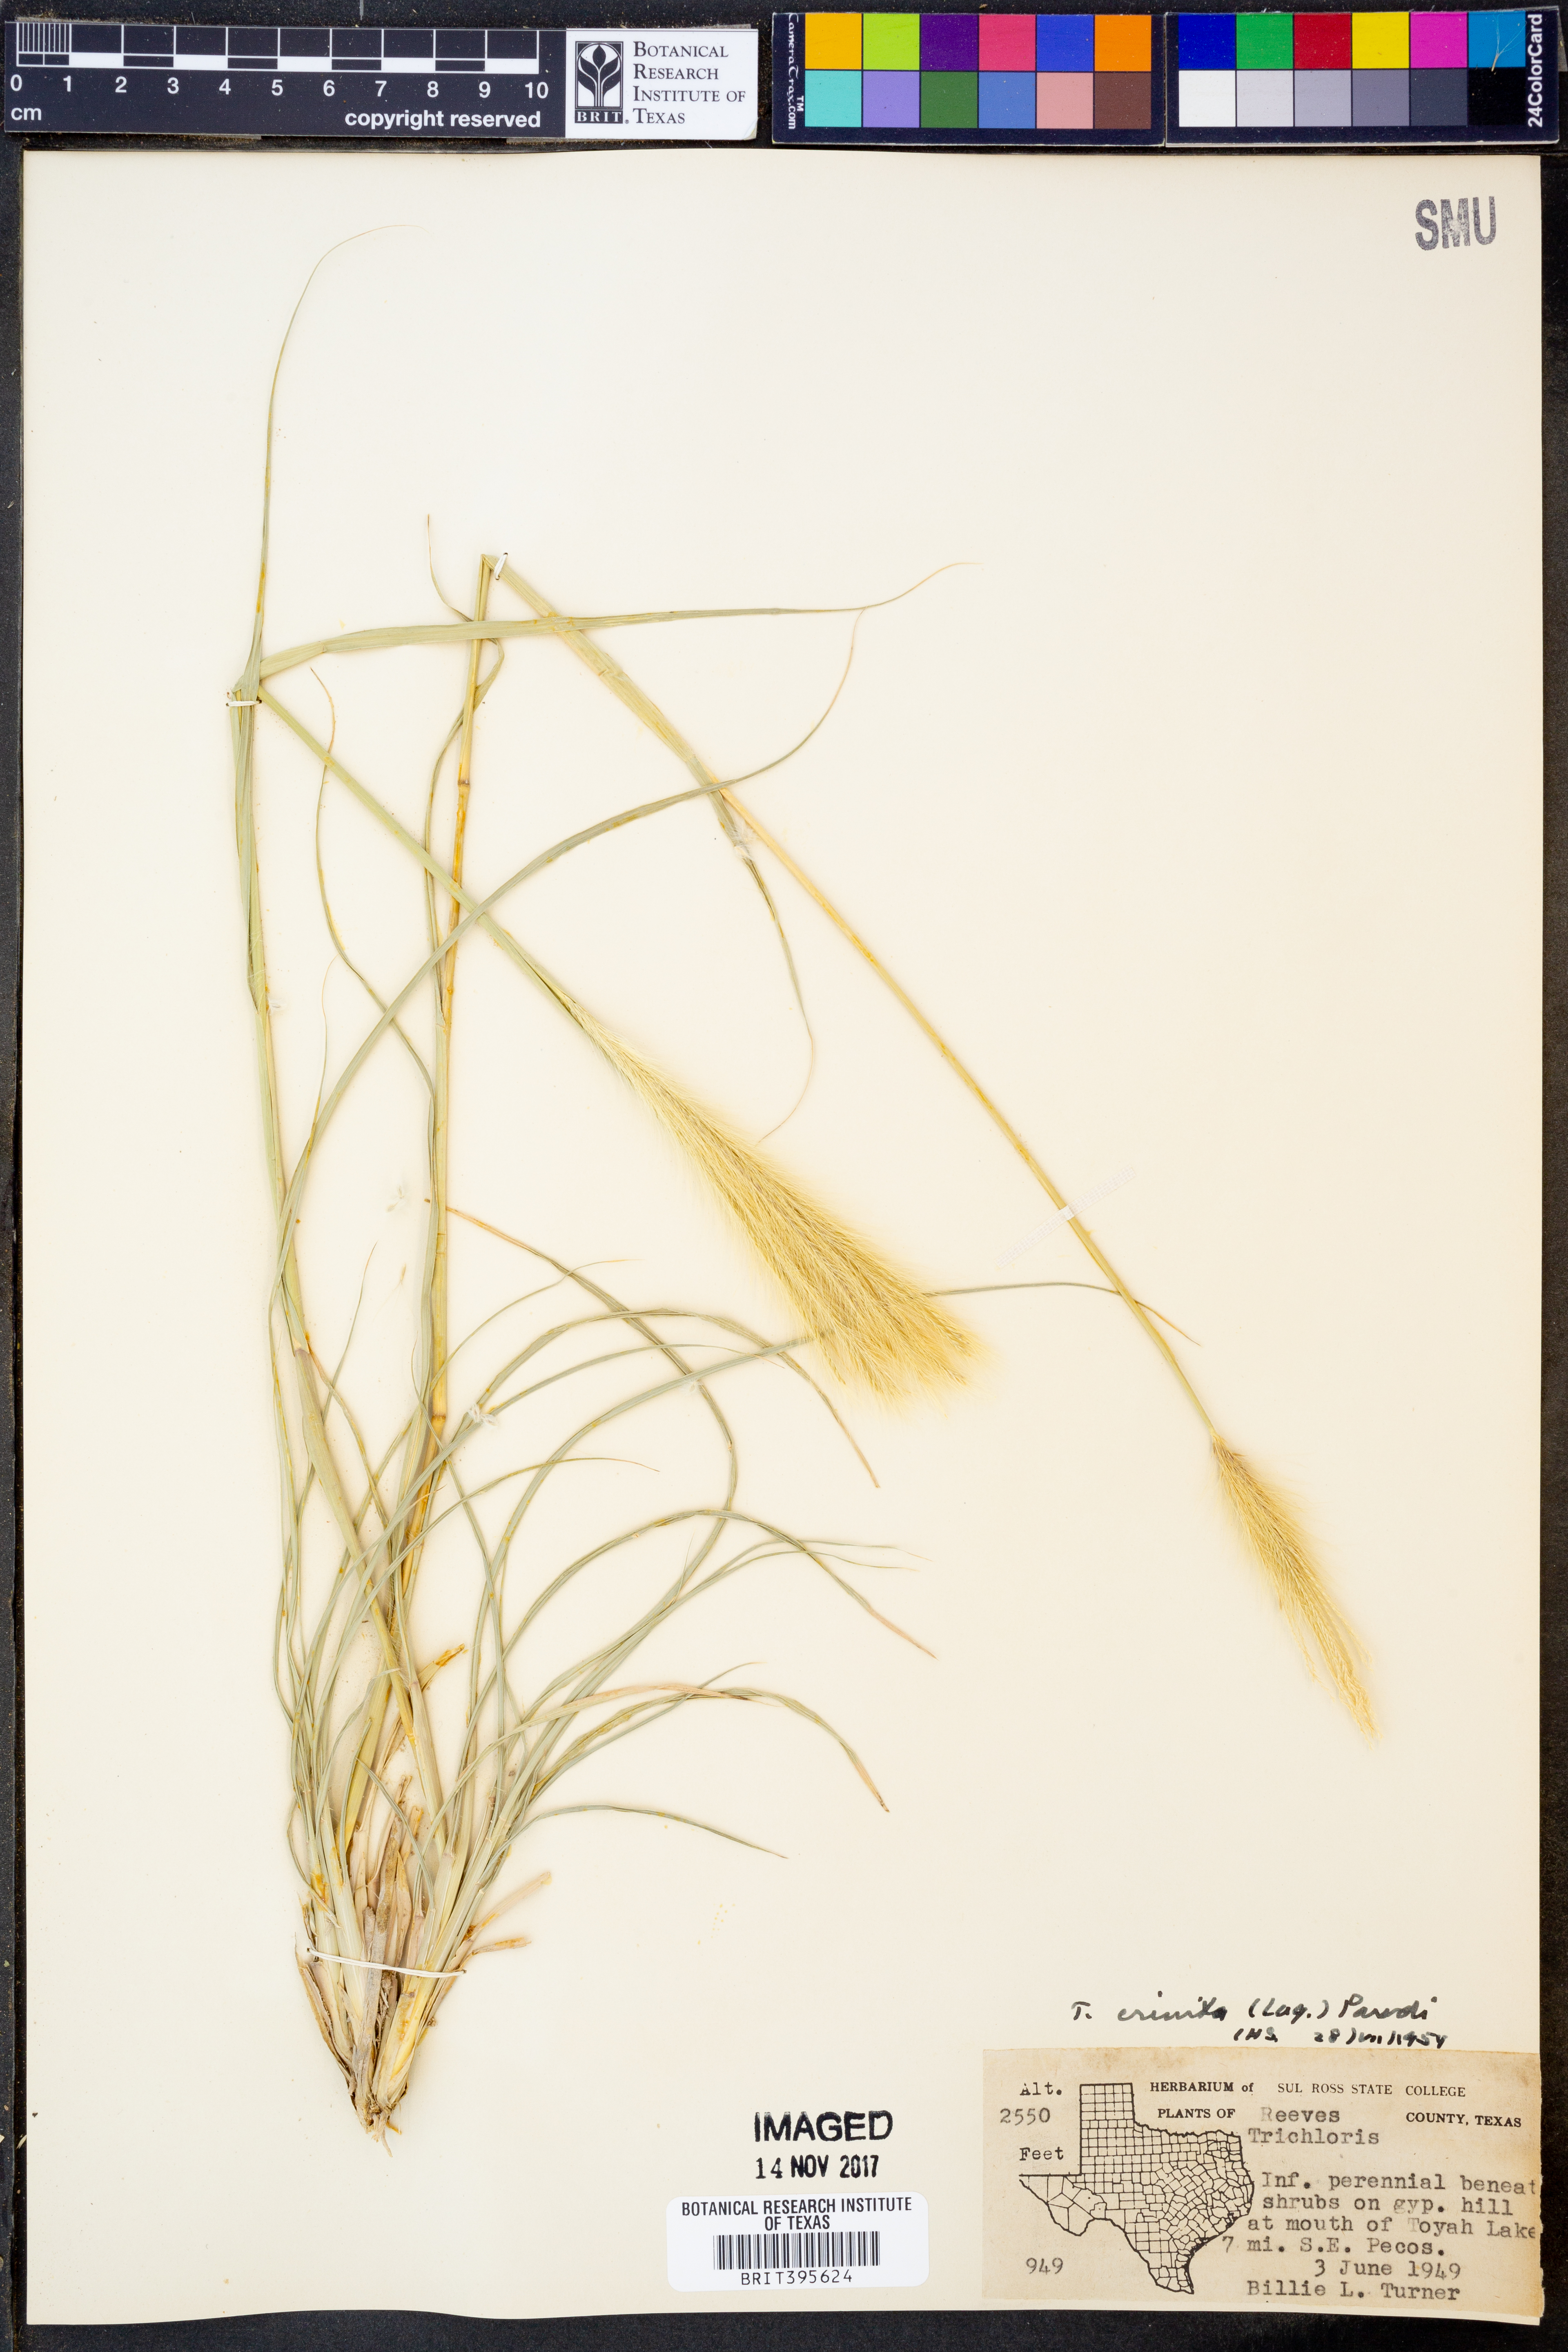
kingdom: Plantae
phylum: Tracheophyta
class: Liliopsida
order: Poales
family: Poaceae
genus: Leptochloa
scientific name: Leptochloa crinita
